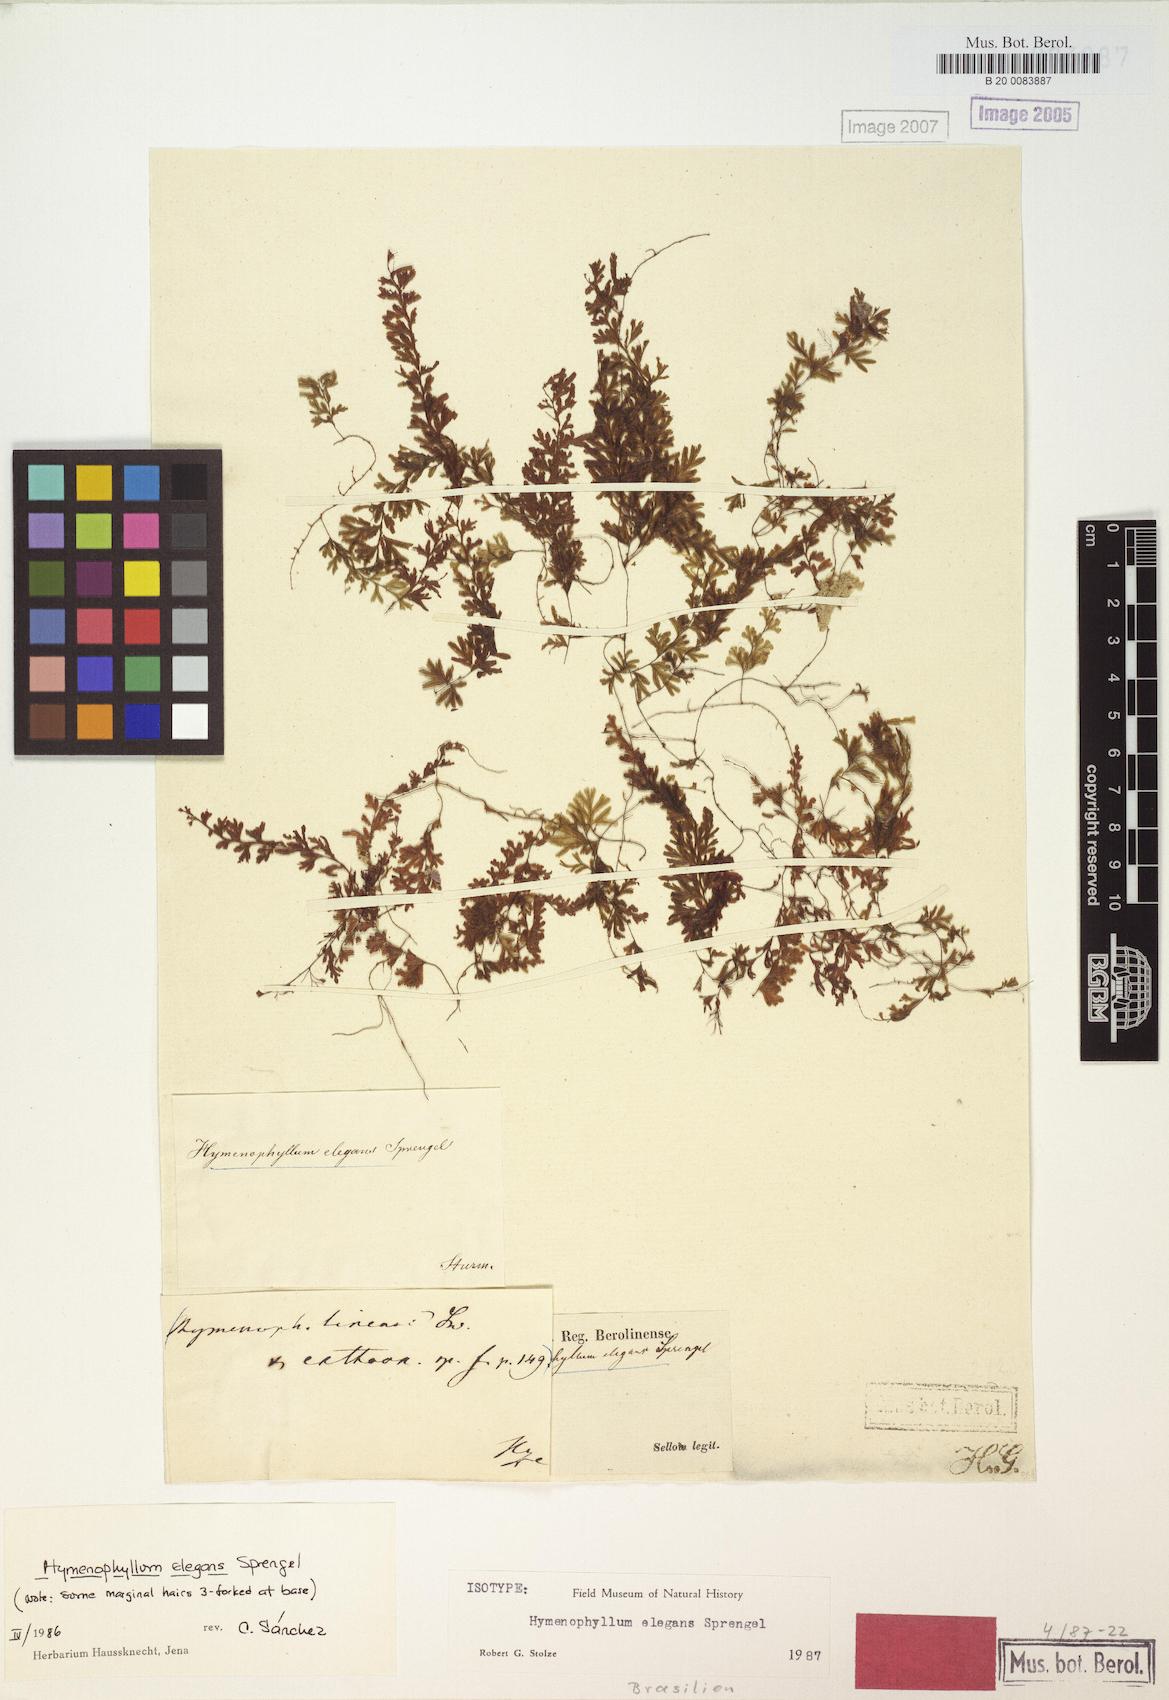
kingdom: Plantae
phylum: Tracheophyta
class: Polypodiopsida
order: Hymenophyllales
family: Hymenophyllaceae
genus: Hymenophyllum
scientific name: Hymenophyllum elegans
